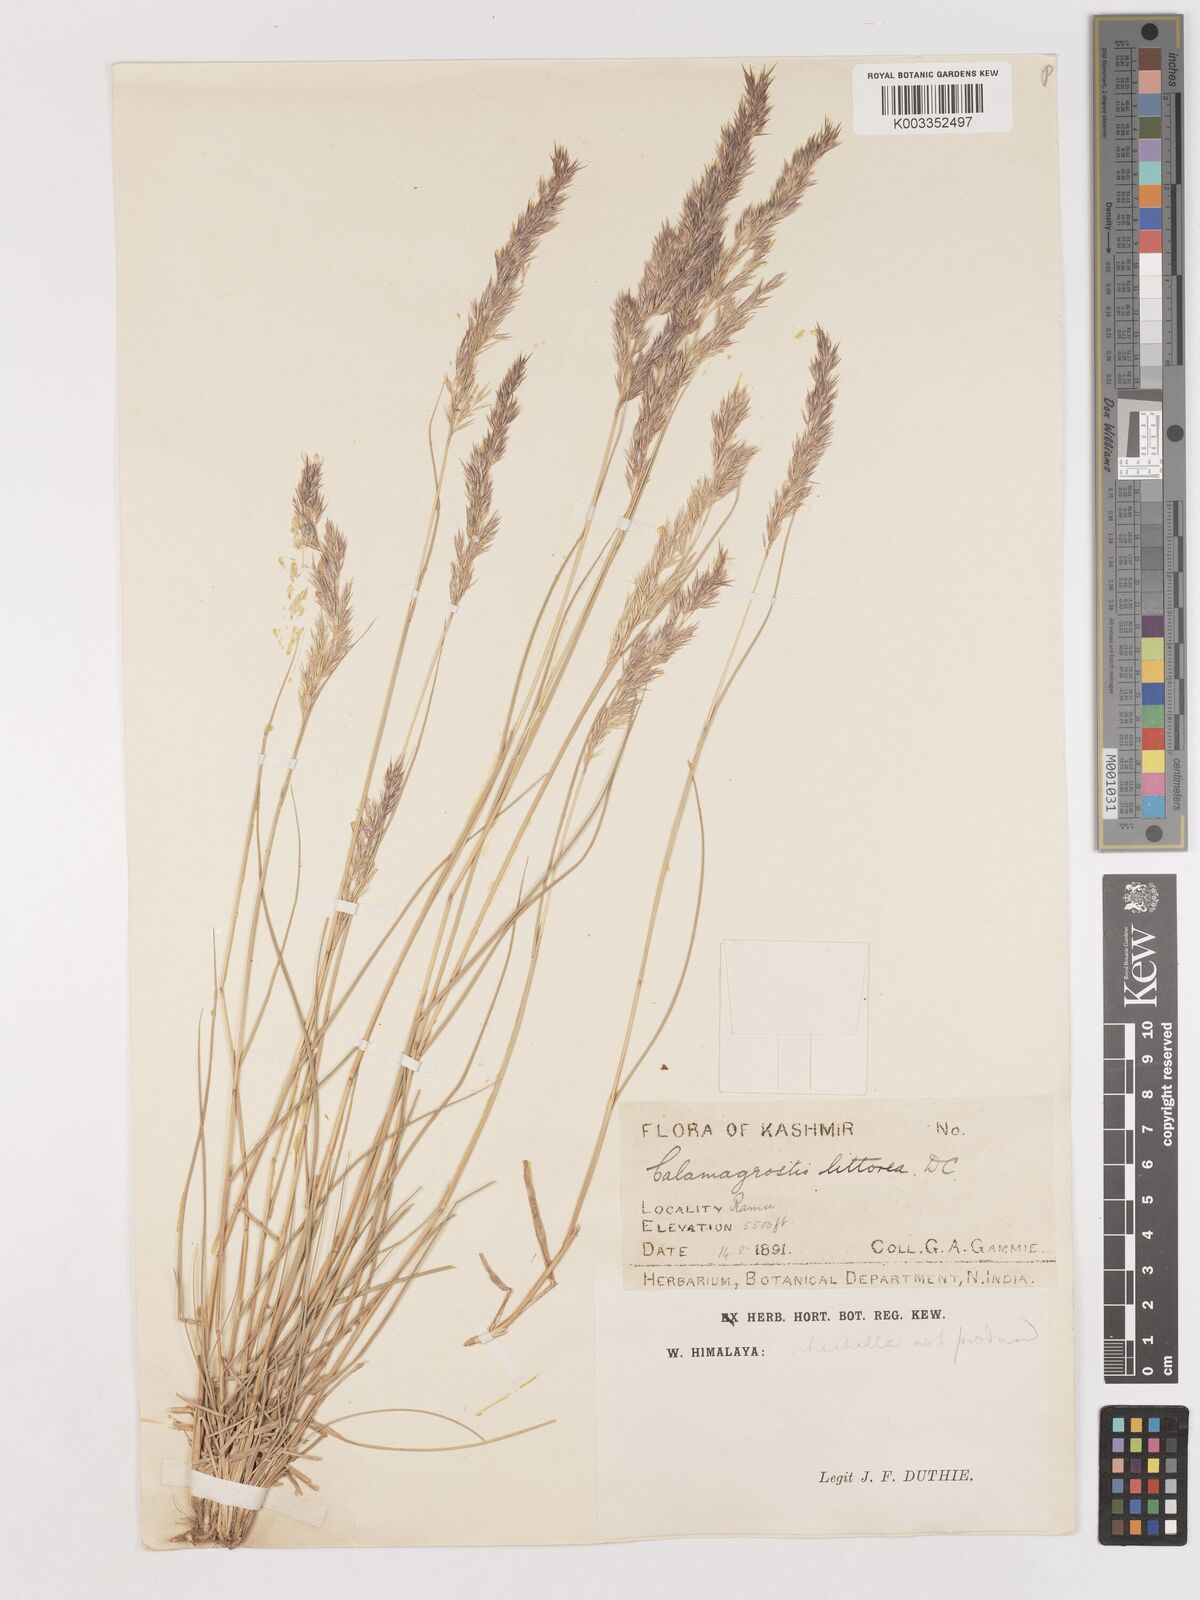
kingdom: Plantae
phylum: Tracheophyta
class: Liliopsida
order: Poales
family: Poaceae
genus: Calamagrostis
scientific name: Calamagrostis epigejos
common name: Wood small-reed
